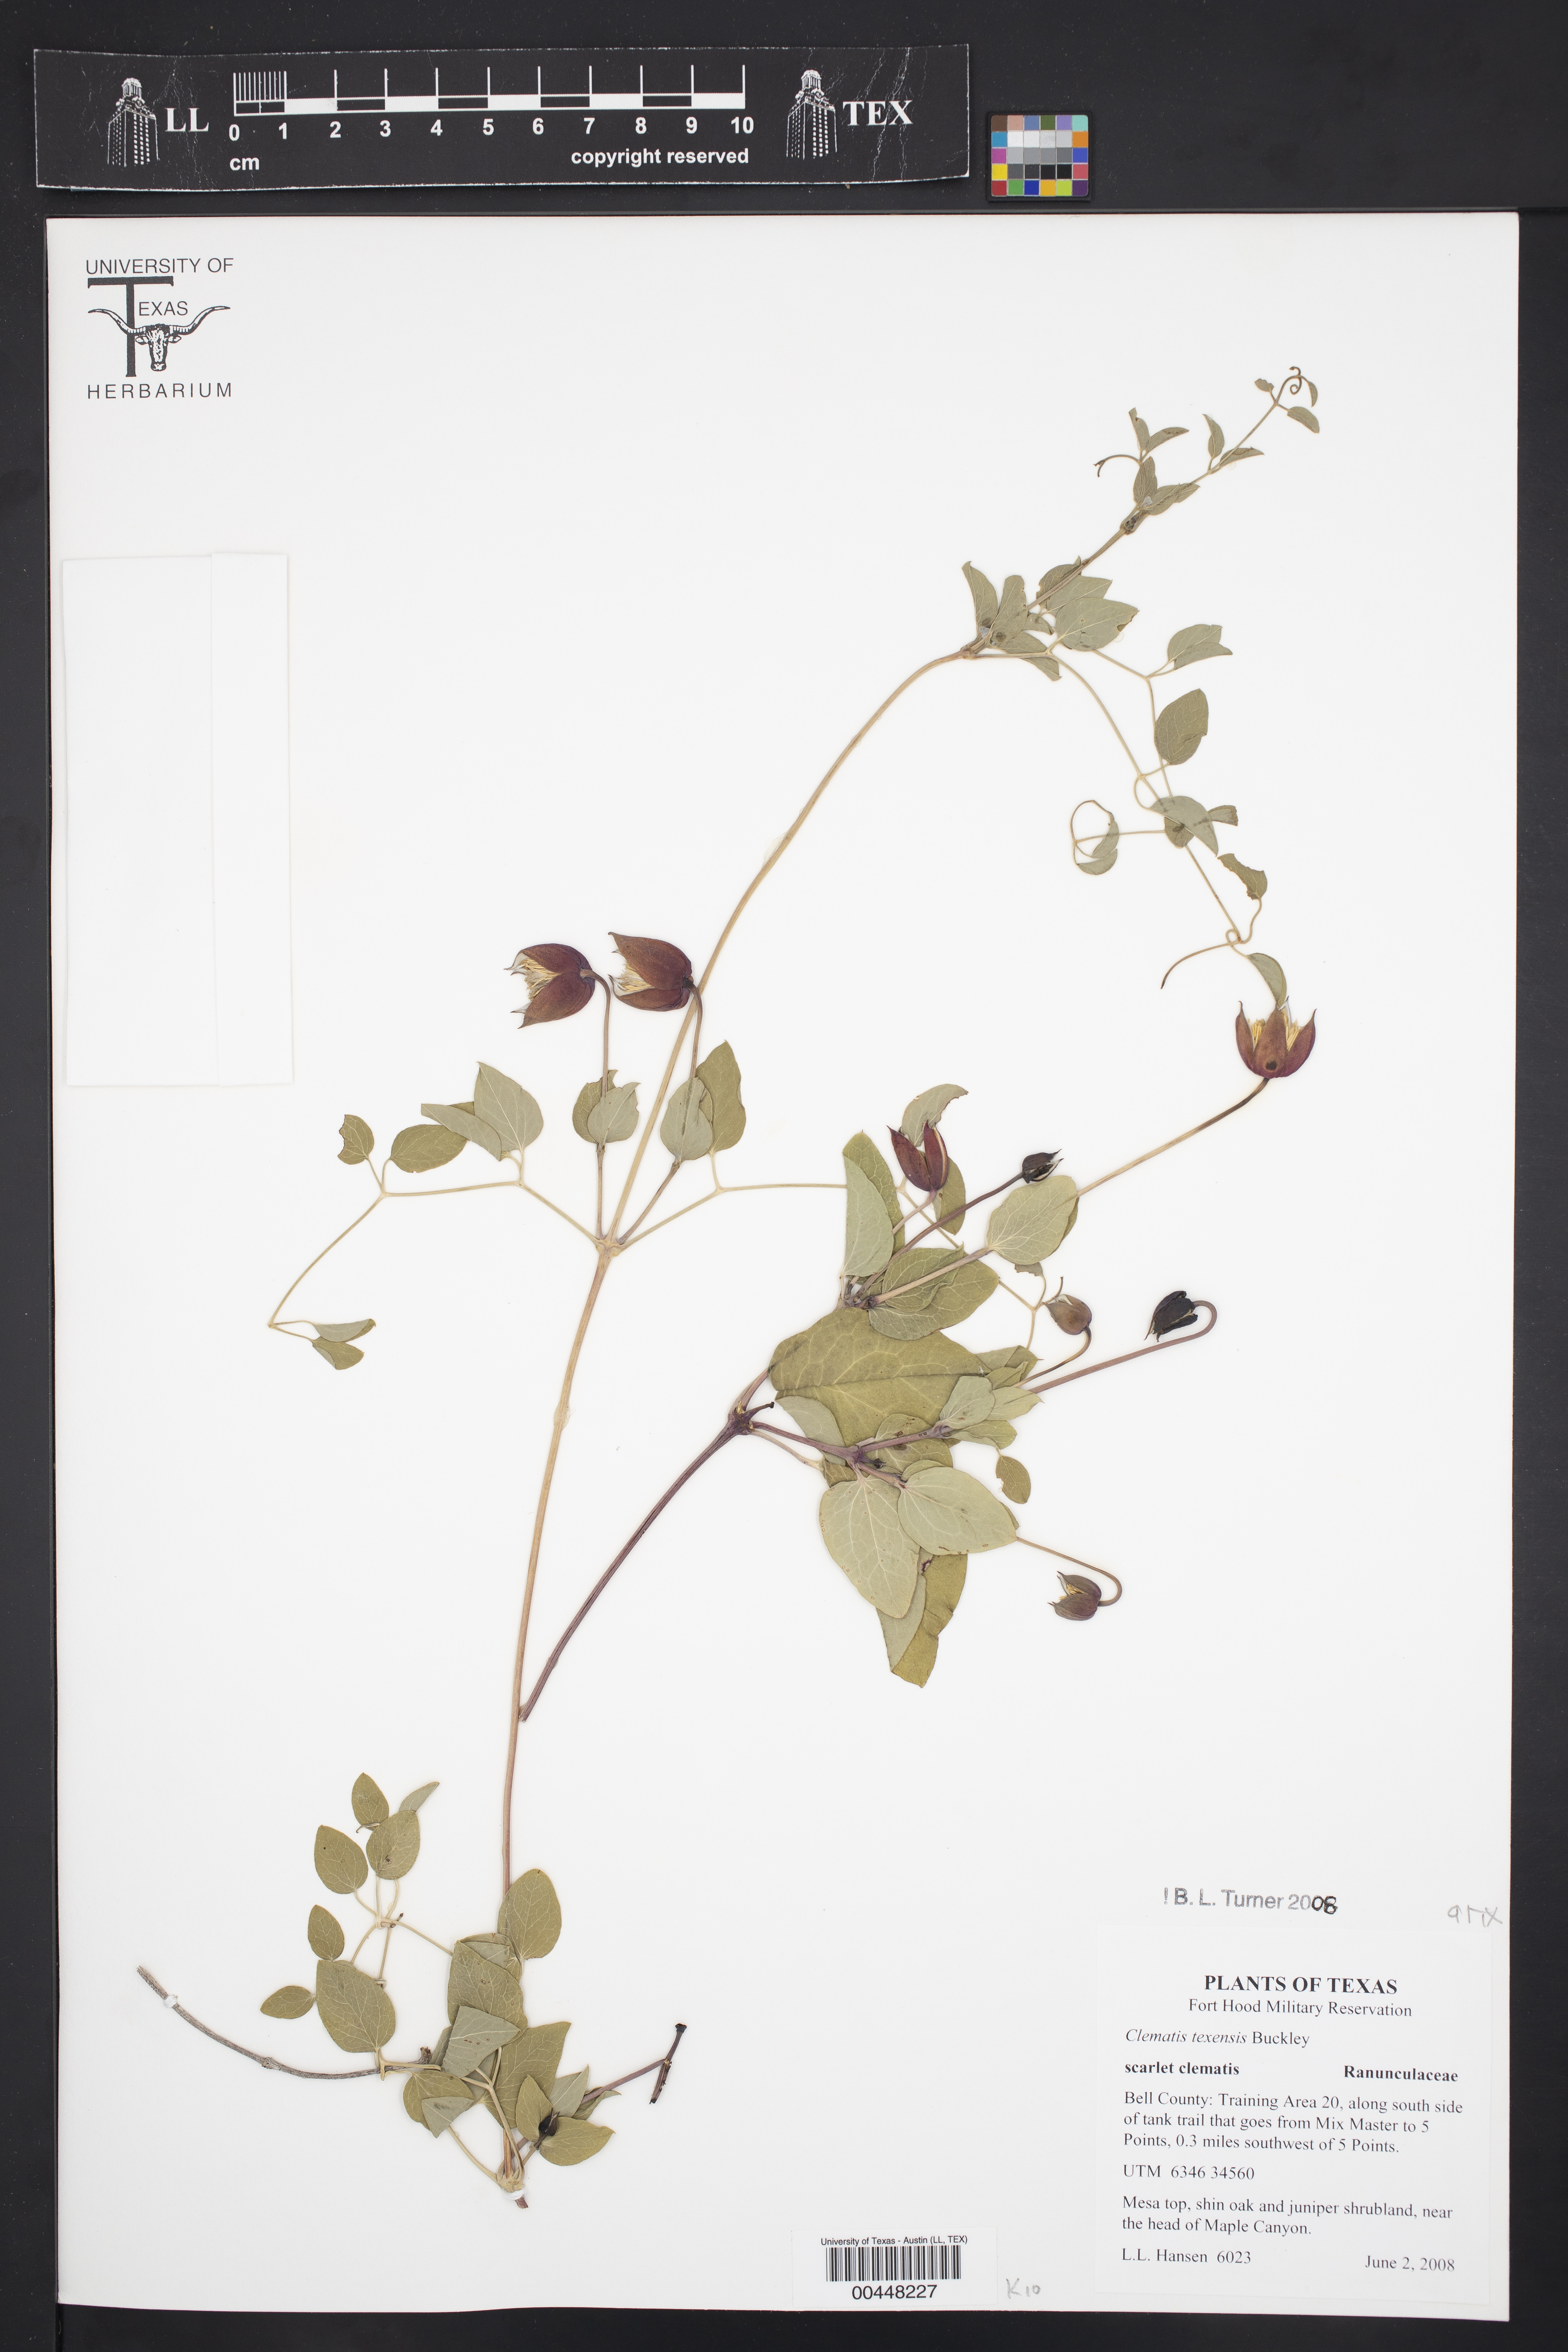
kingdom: Plantae
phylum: Tracheophyta
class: Magnoliopsida
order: Ranunculales
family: Ranunculaceae
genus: Clematis
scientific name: Clematis texensis
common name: Crimson clematis
